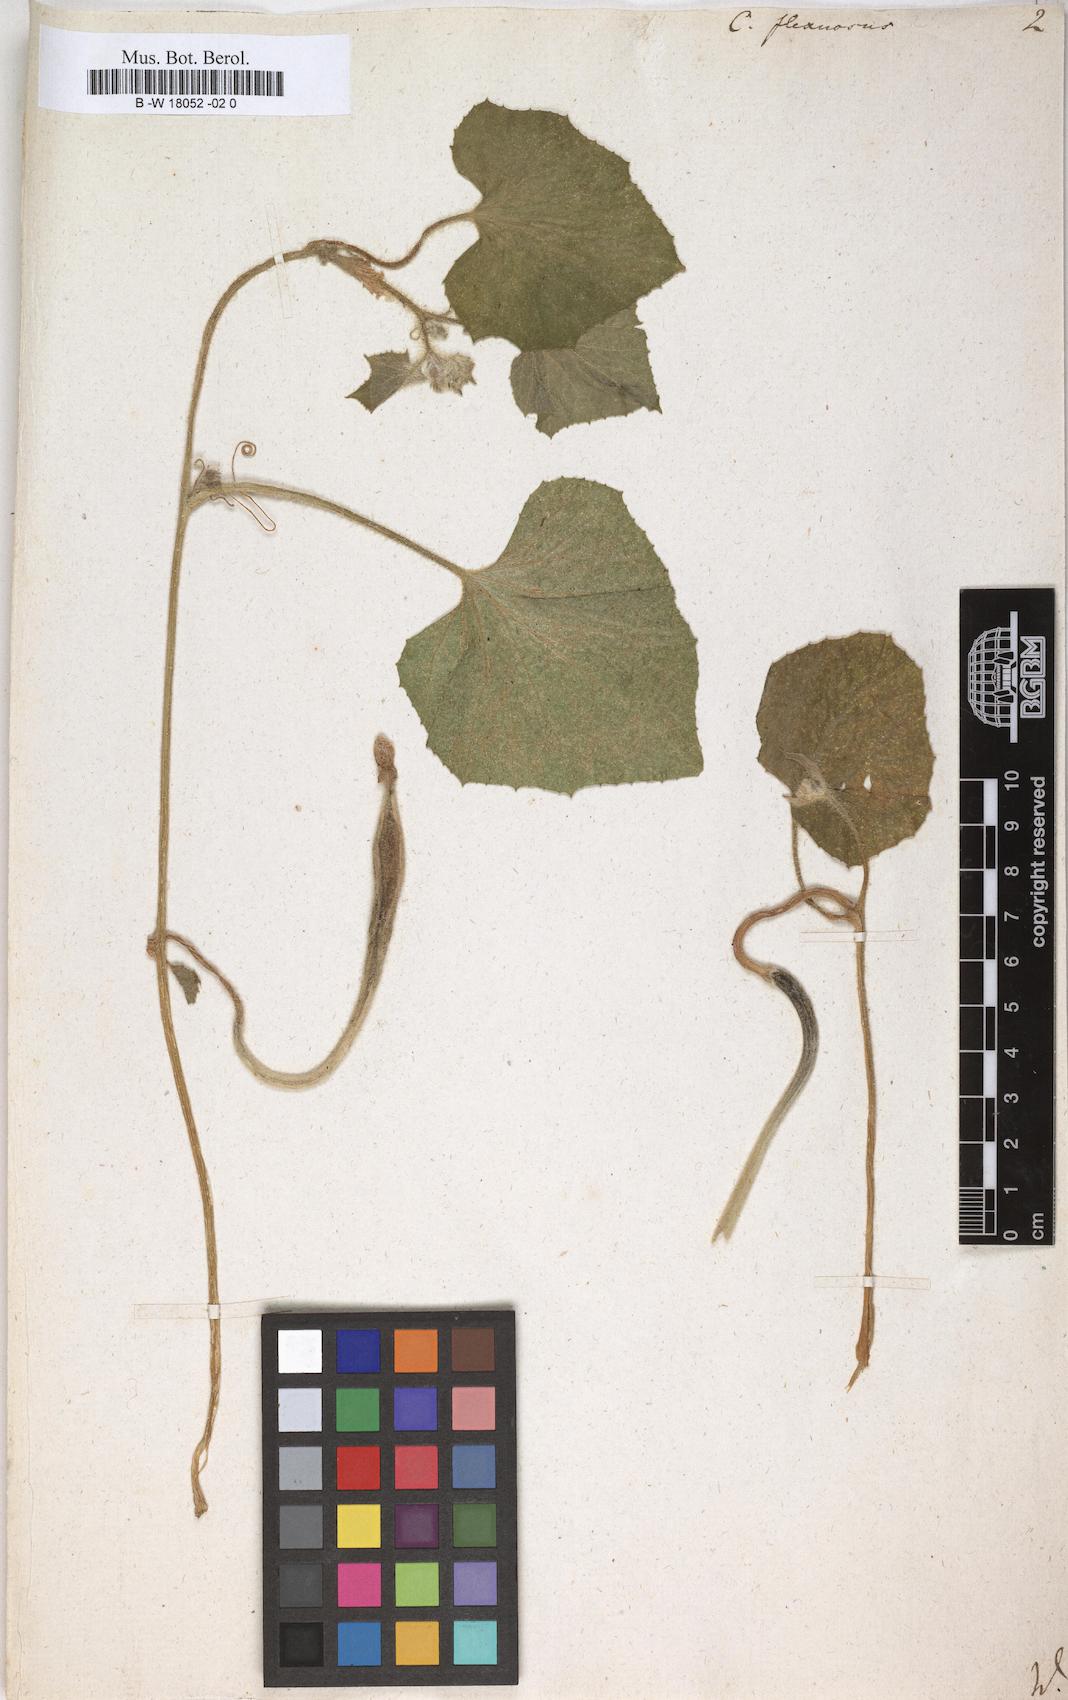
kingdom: Plantae
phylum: Tracheophyta
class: Magnoliopsida
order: Cucurbitales
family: Cucurbitaceae
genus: Cucumis
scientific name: Cucumis melo
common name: Melon
